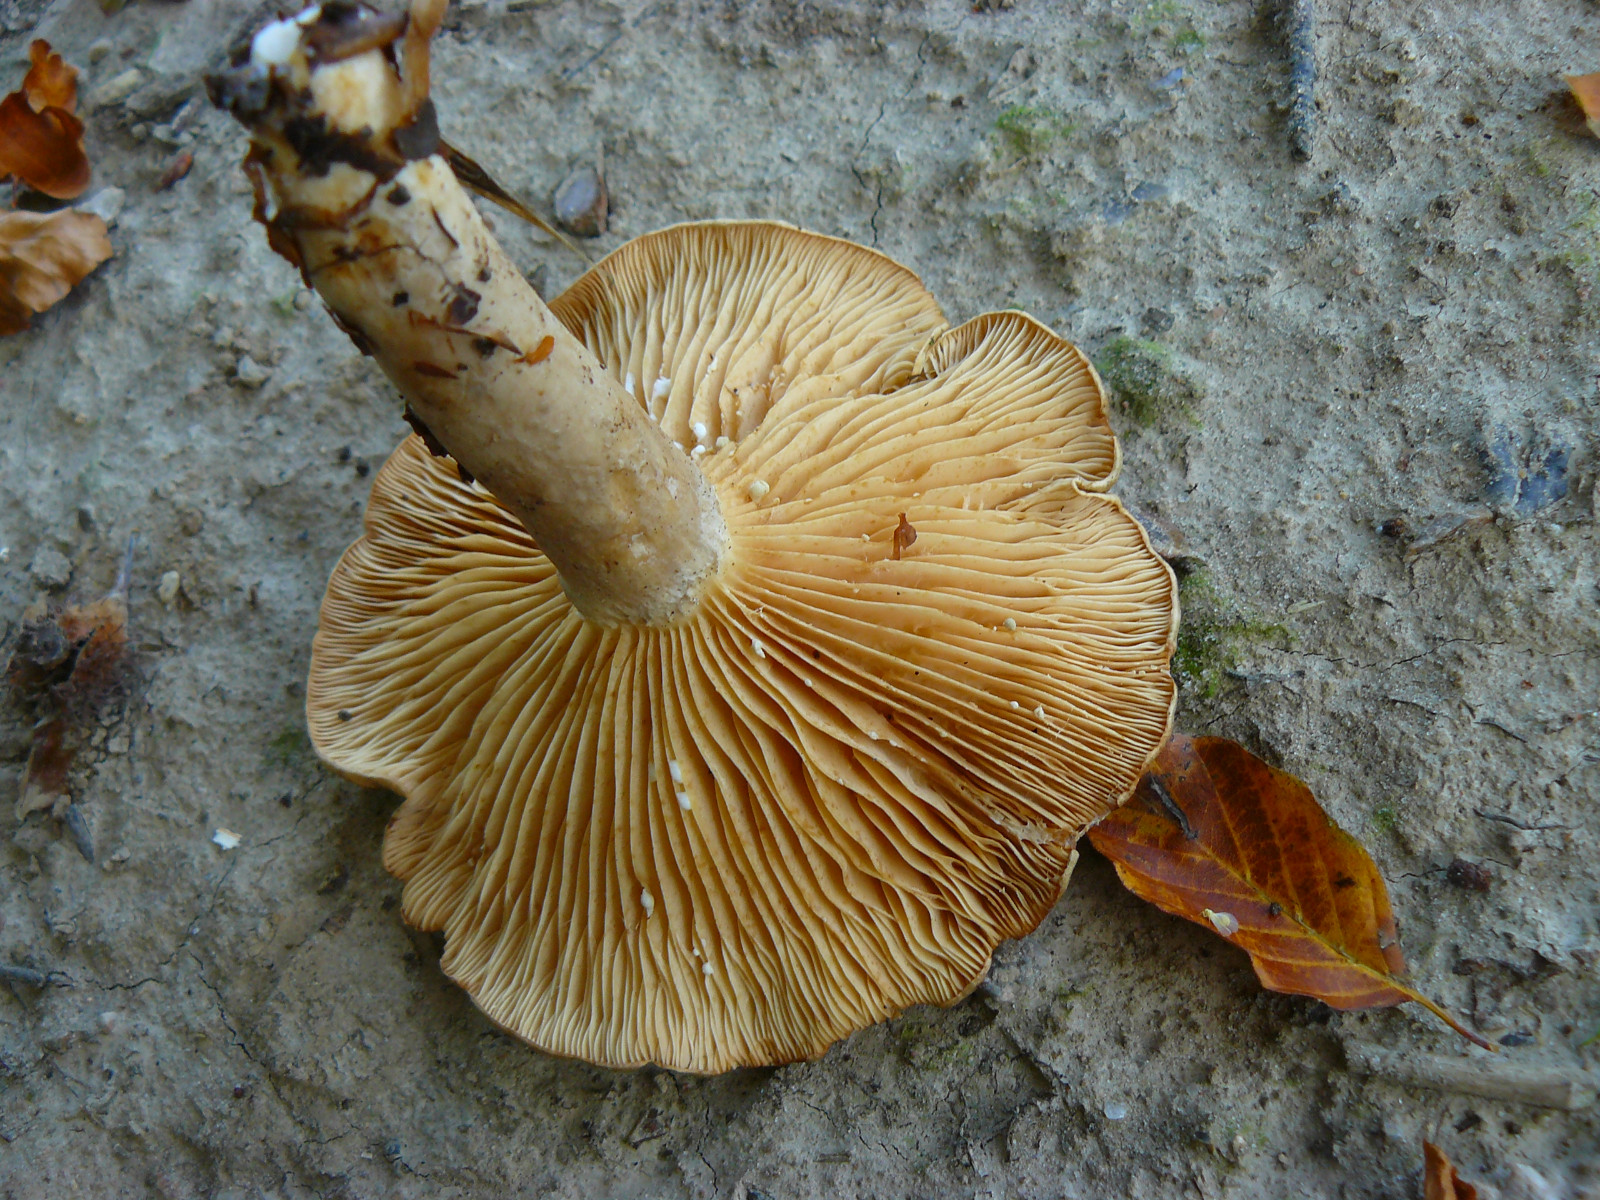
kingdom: Fungi
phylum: Basidiomycota
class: Agaricomycetes
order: Russulales
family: Russulaceae
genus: Lactarius
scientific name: Lactarius pyrogalus
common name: hassel-mælkehat
